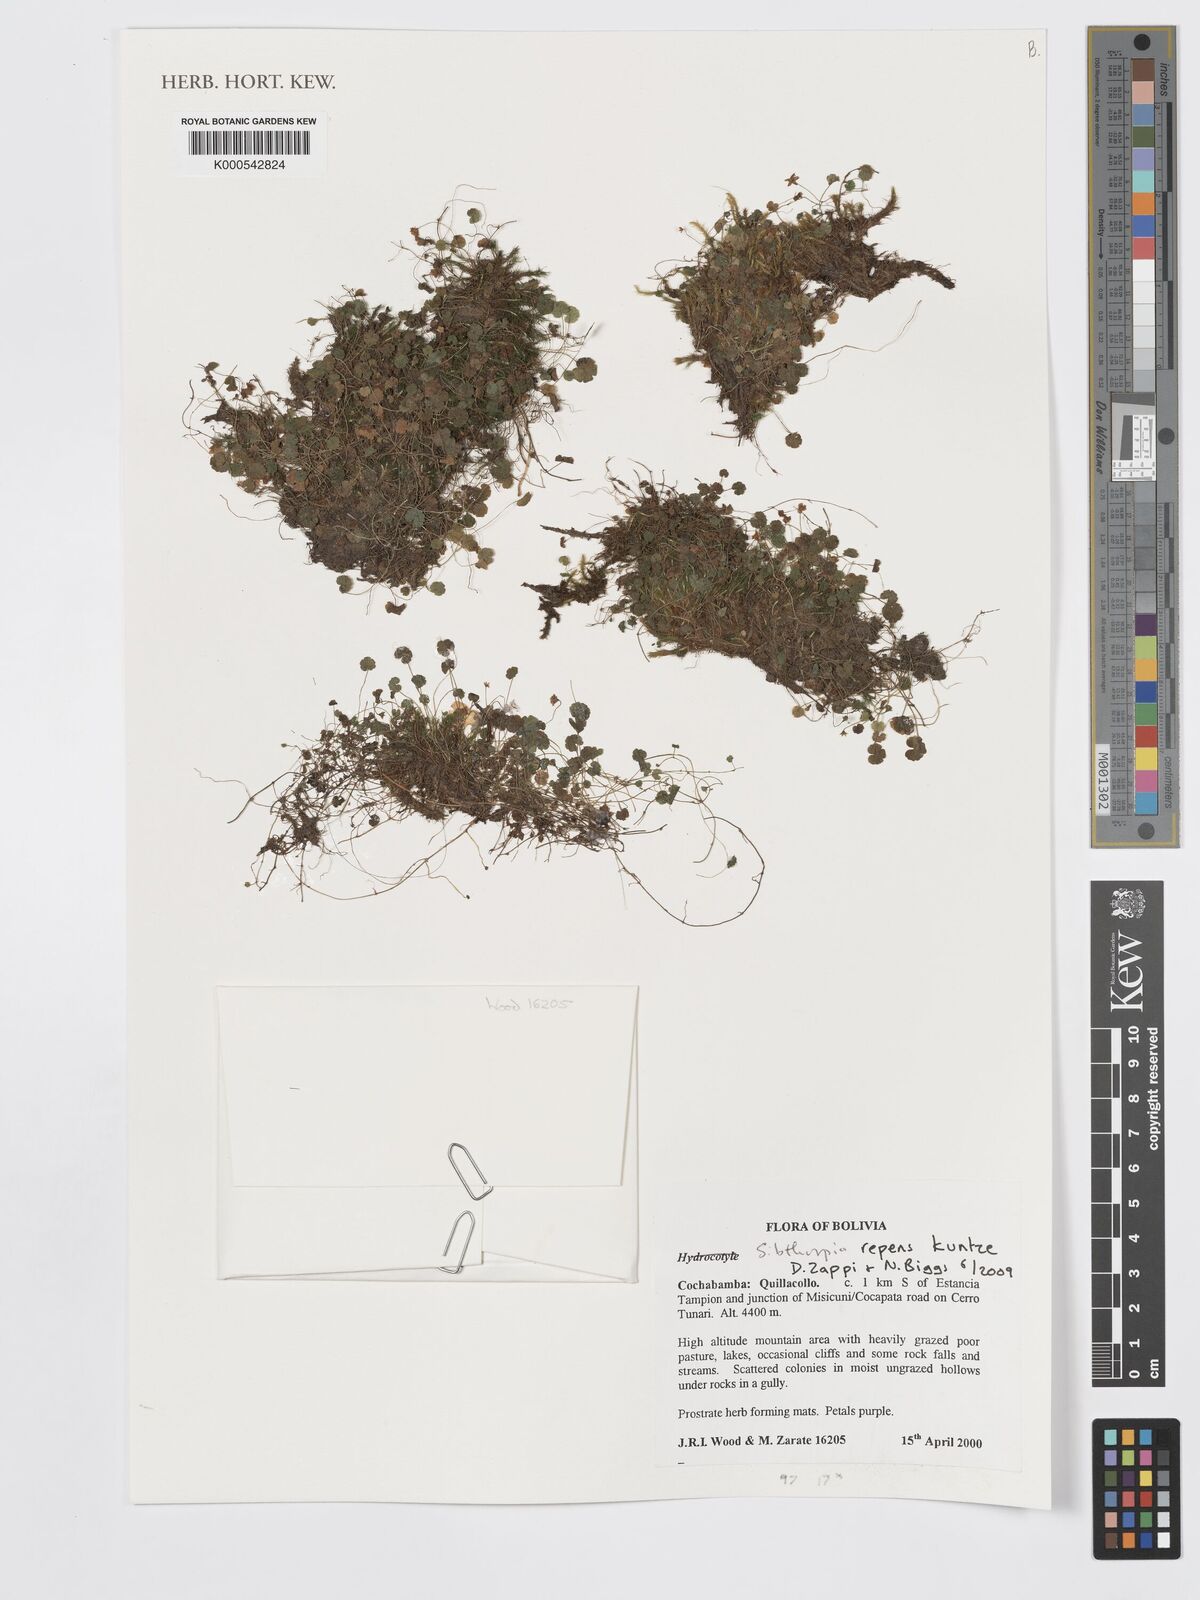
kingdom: Plantae
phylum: Tracheophyta
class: Magnoliopsida
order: Lamiales
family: Plantaginaceae
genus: Sibthorpia
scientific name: Sibthorpia repens
